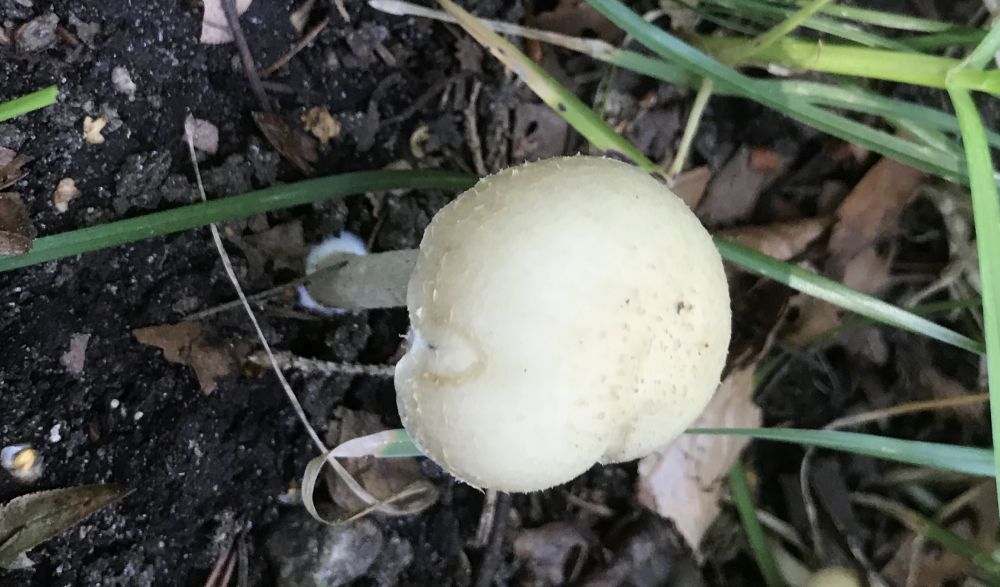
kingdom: Fungi
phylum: Basidiomycota
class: Agaricomycetes
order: Agaricales
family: Psathyrellaceae
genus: Candolleomyces
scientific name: Candolleomyces candolleanus
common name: Candolles mørkhat
